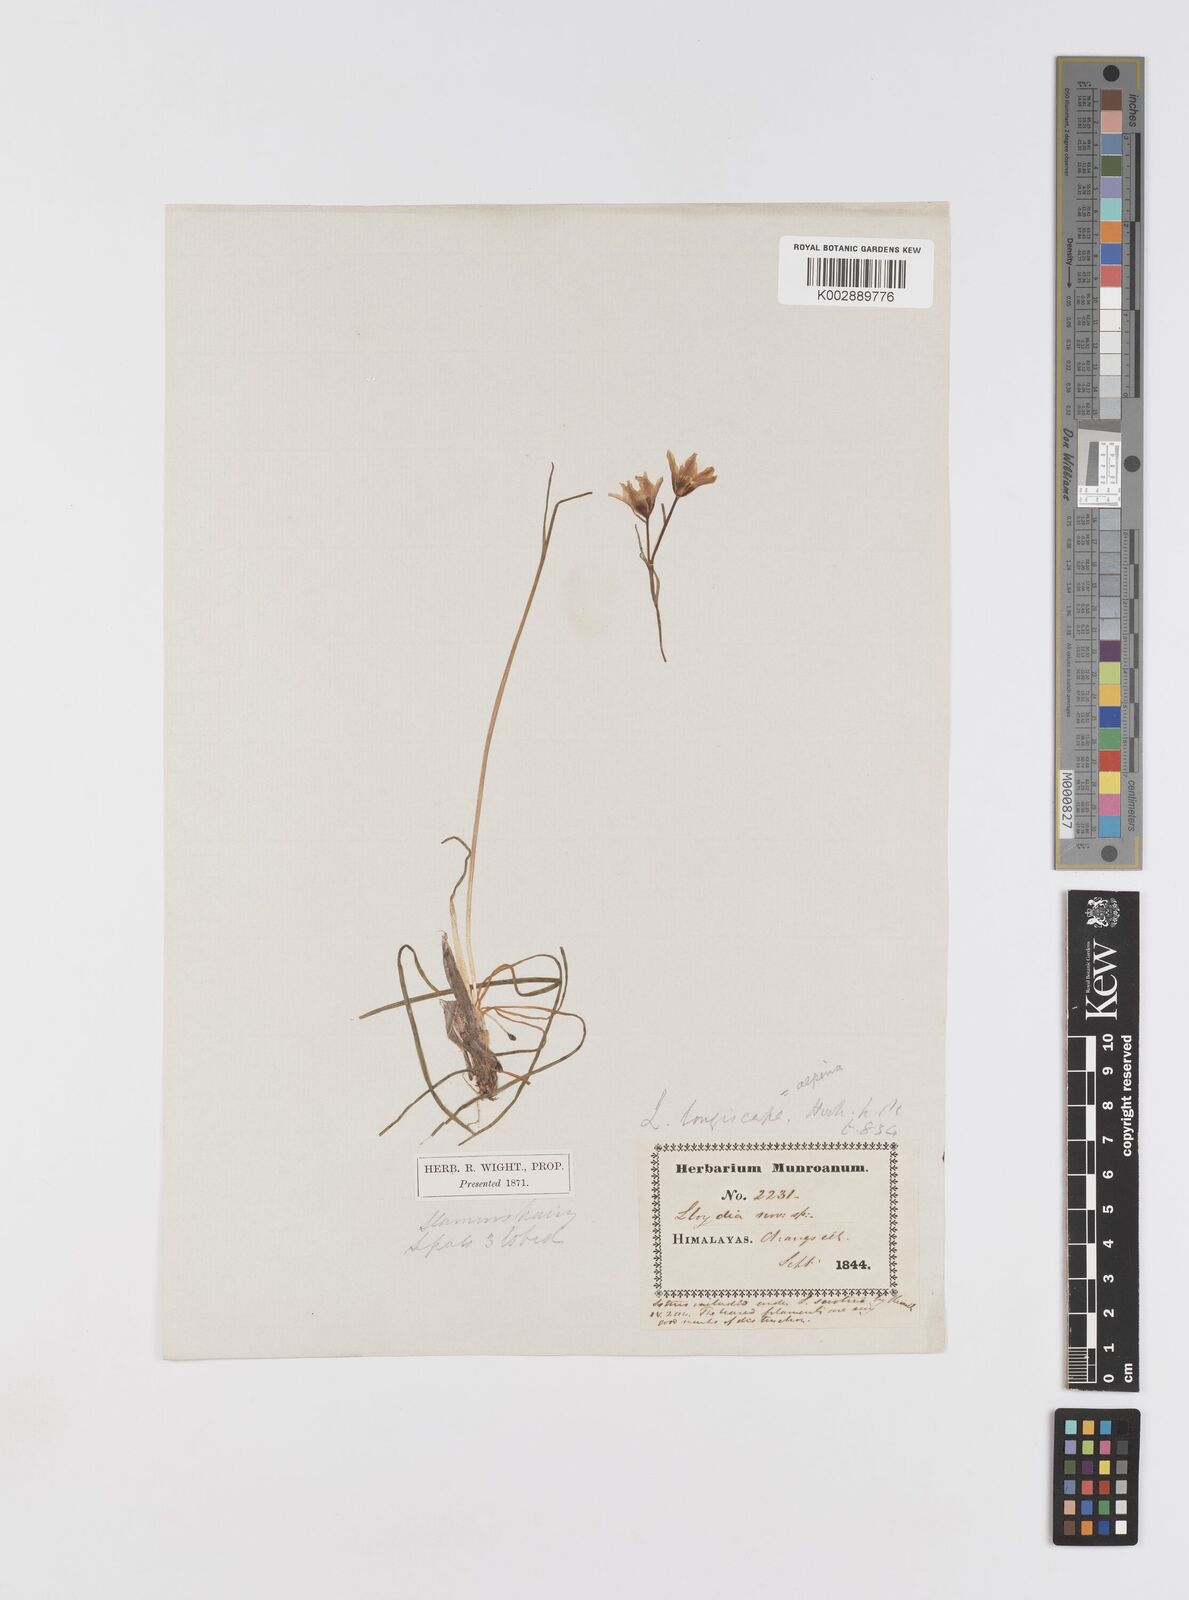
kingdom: Plantae
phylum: Tracheophyta
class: Liliopsida
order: Liliales
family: Liliaceae
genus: Gagea
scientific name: Gagea longiscapa
